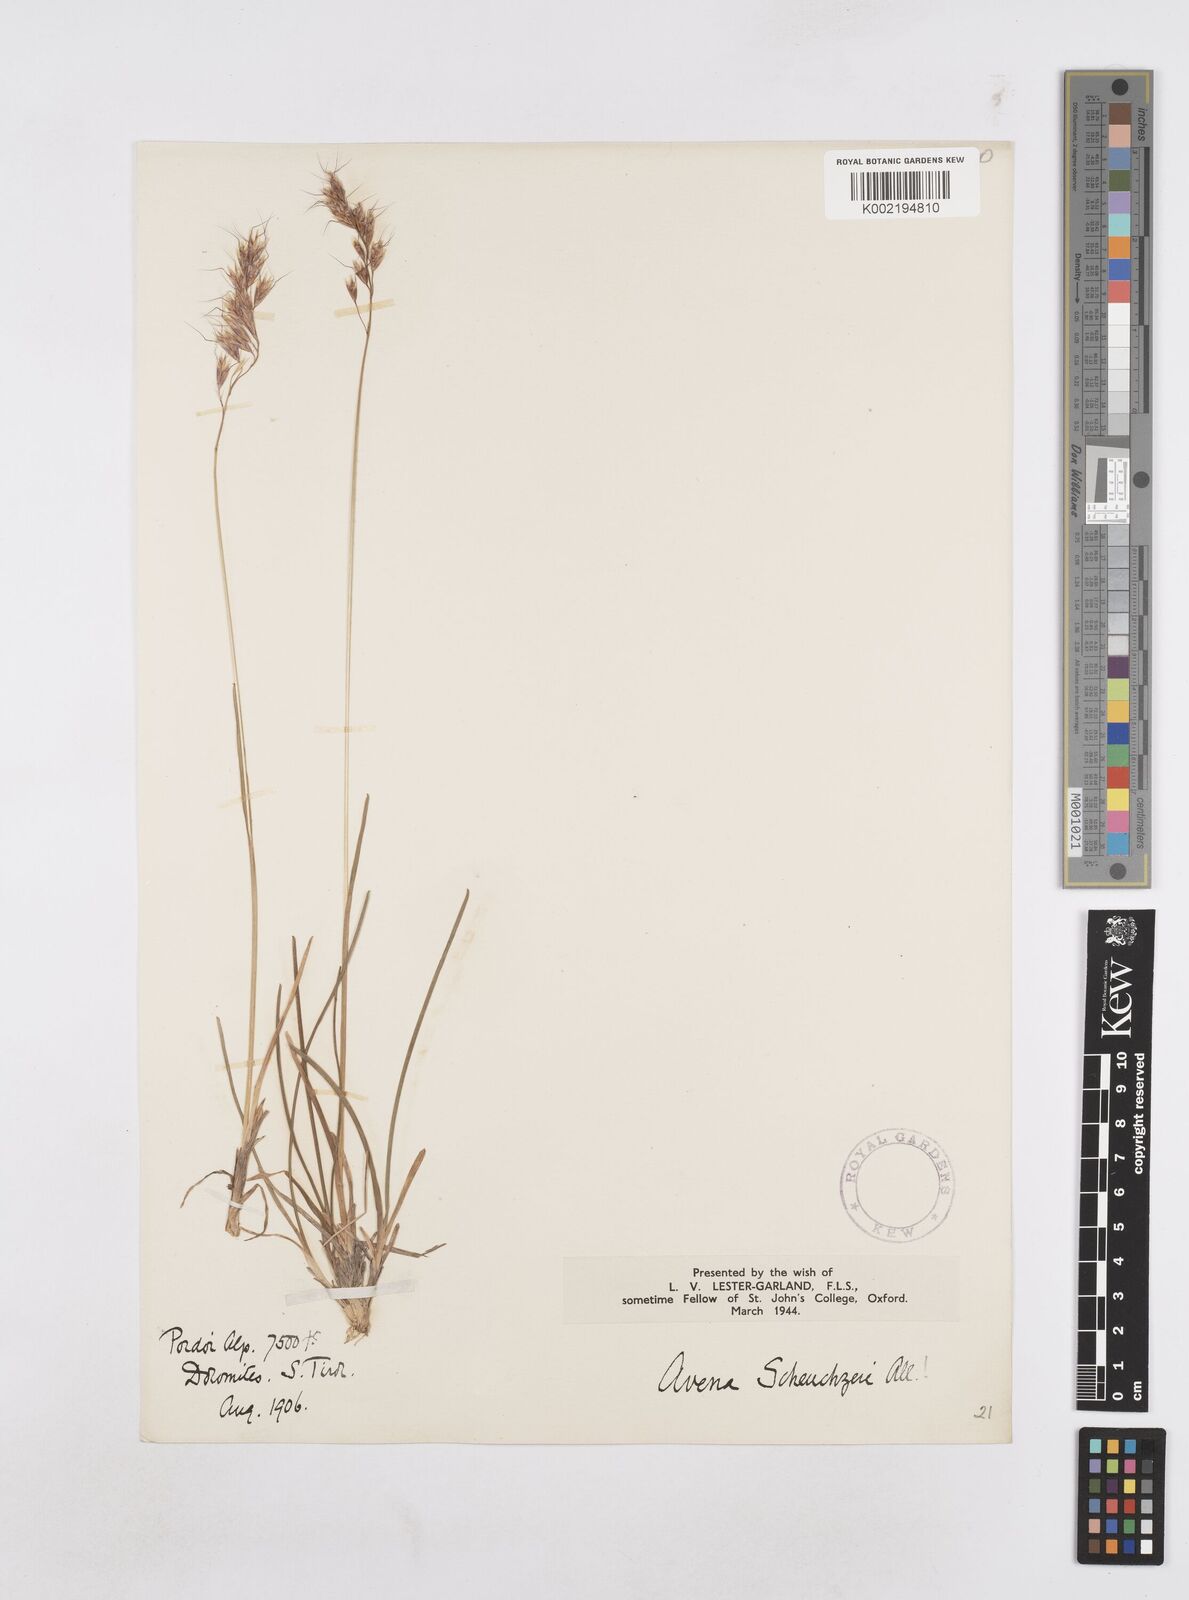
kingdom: Plantae
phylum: Tracheophyta
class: Liliopsida
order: Poales
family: Poaceae
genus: Helictochloa
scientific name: Helictochloa versicolor
